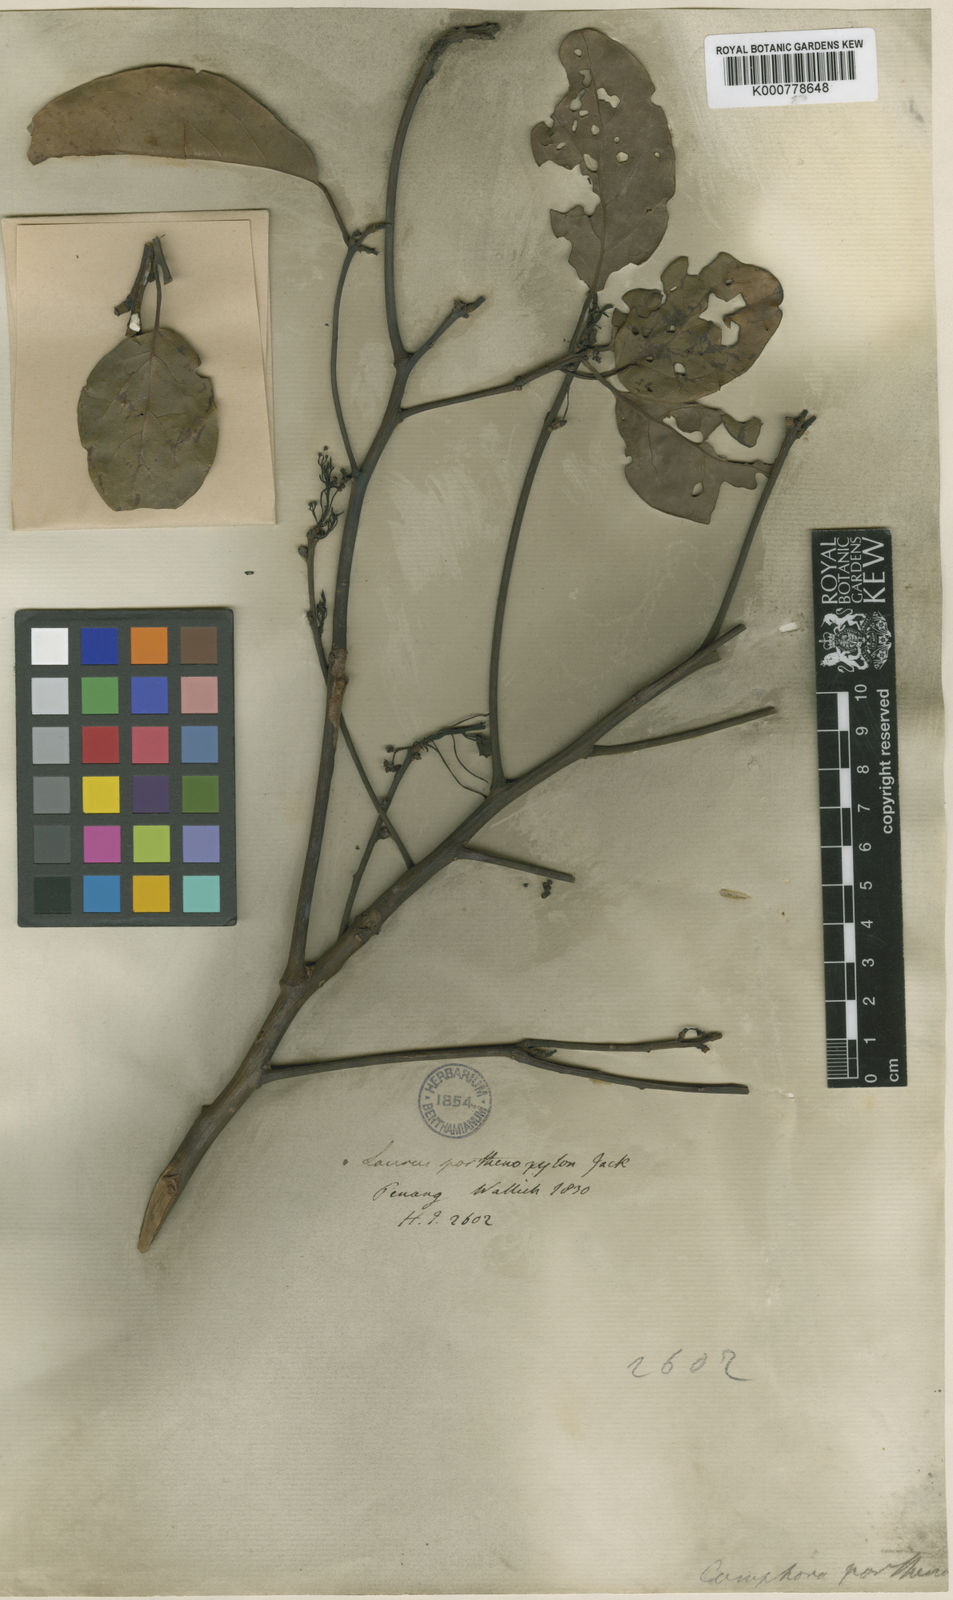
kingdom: Plantae
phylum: Tracheophyta
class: Magnoliopsida
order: Laurales
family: Lauraceae
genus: Cinnamomum
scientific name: Cinnamomum
